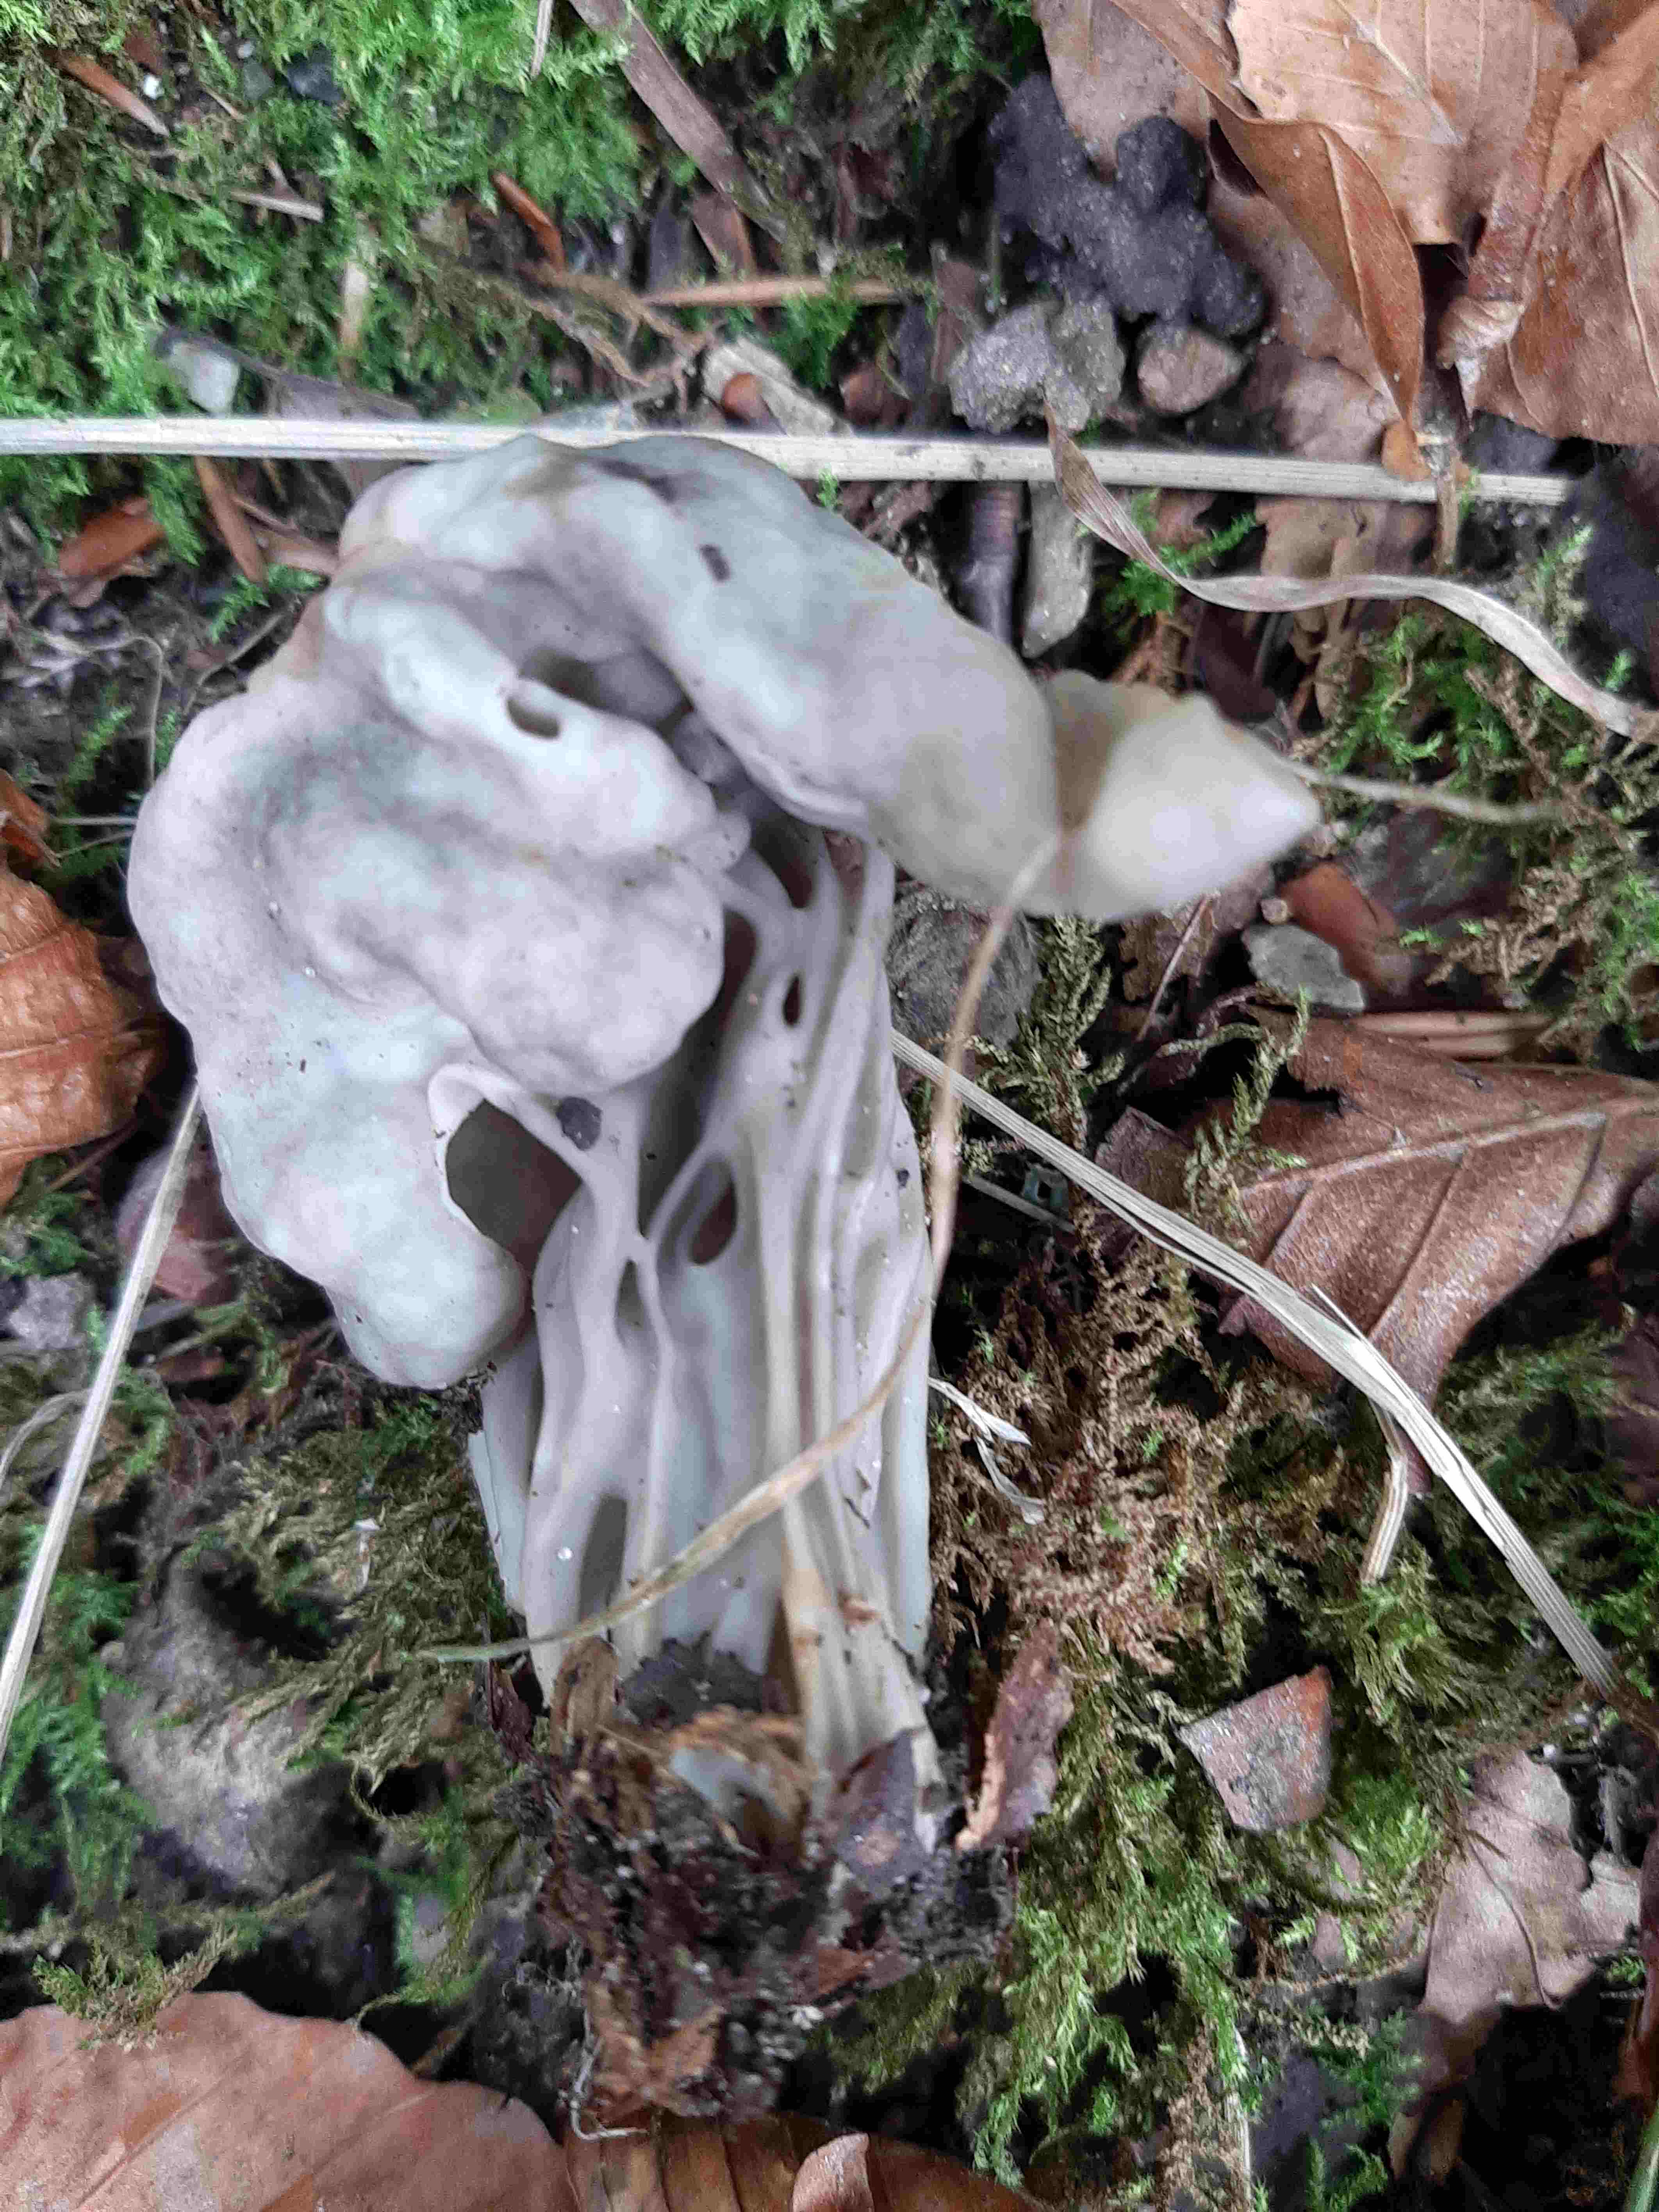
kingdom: Fungi
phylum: Ascomycota
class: Pezizomycetes
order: Pezizales
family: Helvellaceae
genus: Helvella
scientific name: Helvella crispa
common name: kruset foldhat
